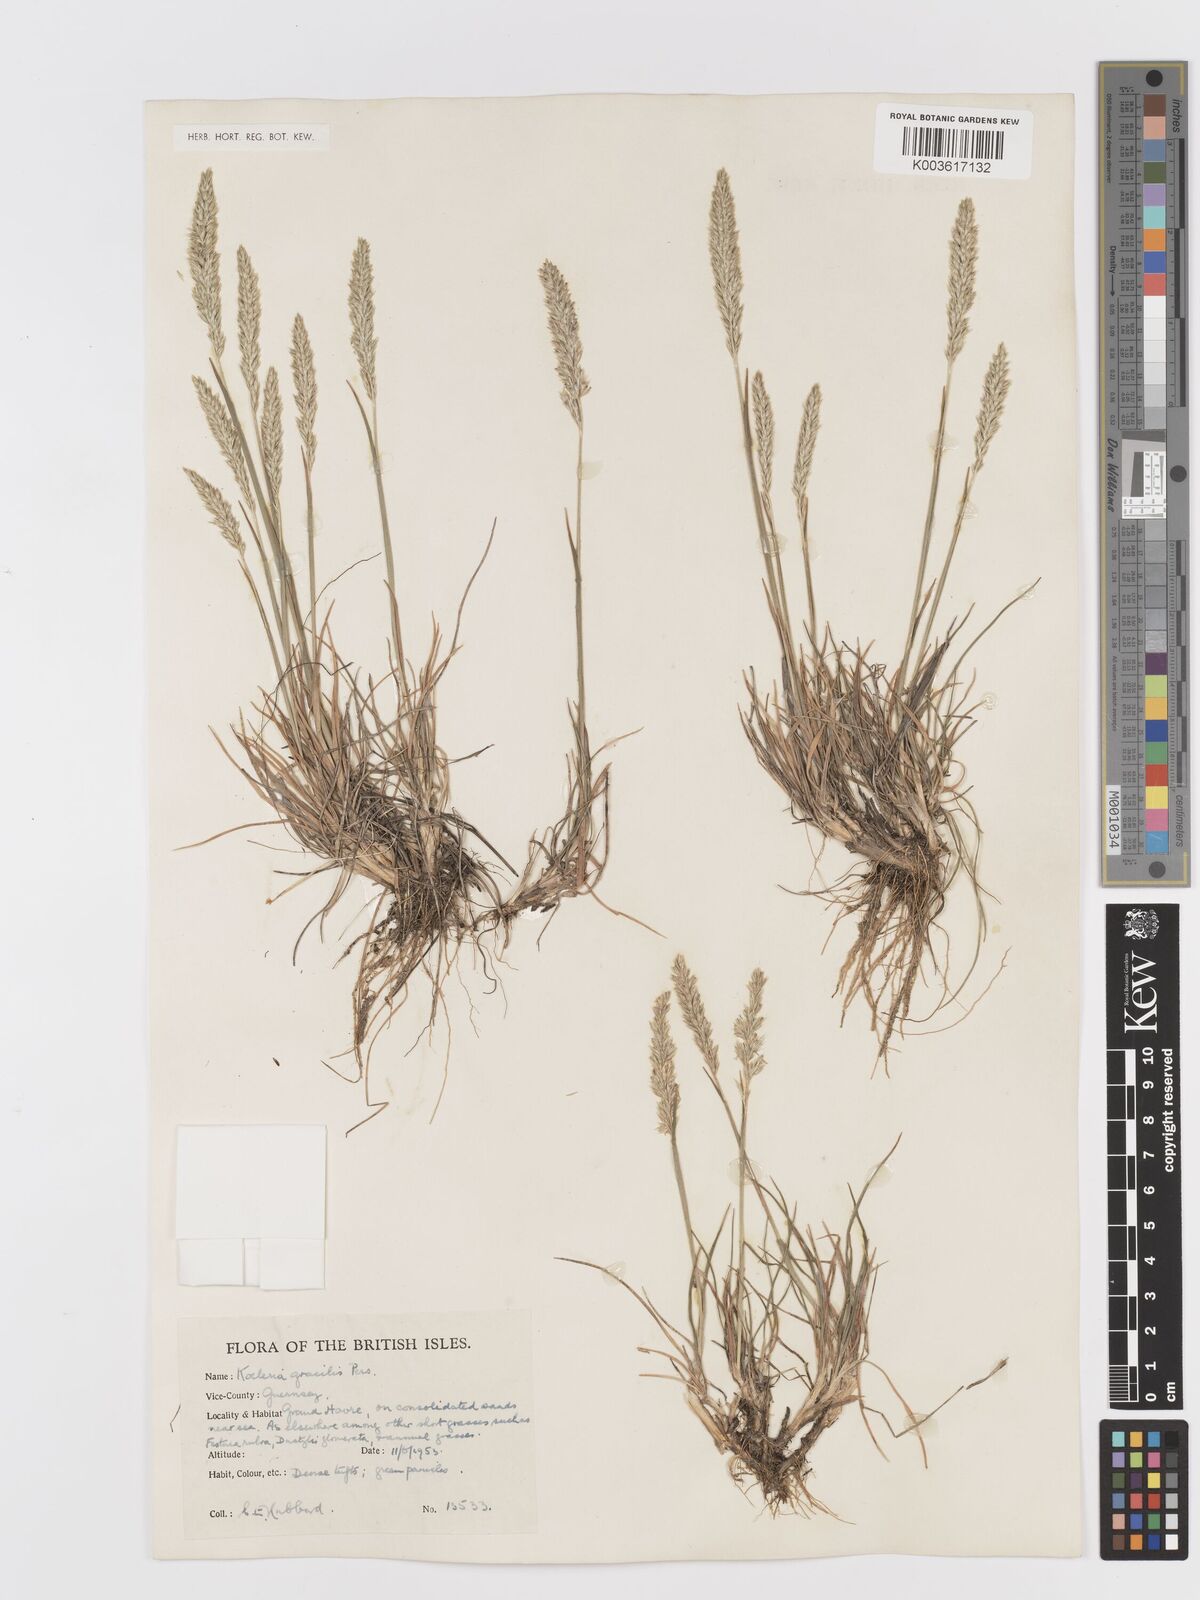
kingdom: Plantae
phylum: Tracheophyta
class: Liliopsida
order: Poales
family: Poaceae
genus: Koeleria
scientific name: Koeleria macrantha
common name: Crested hair-grass
